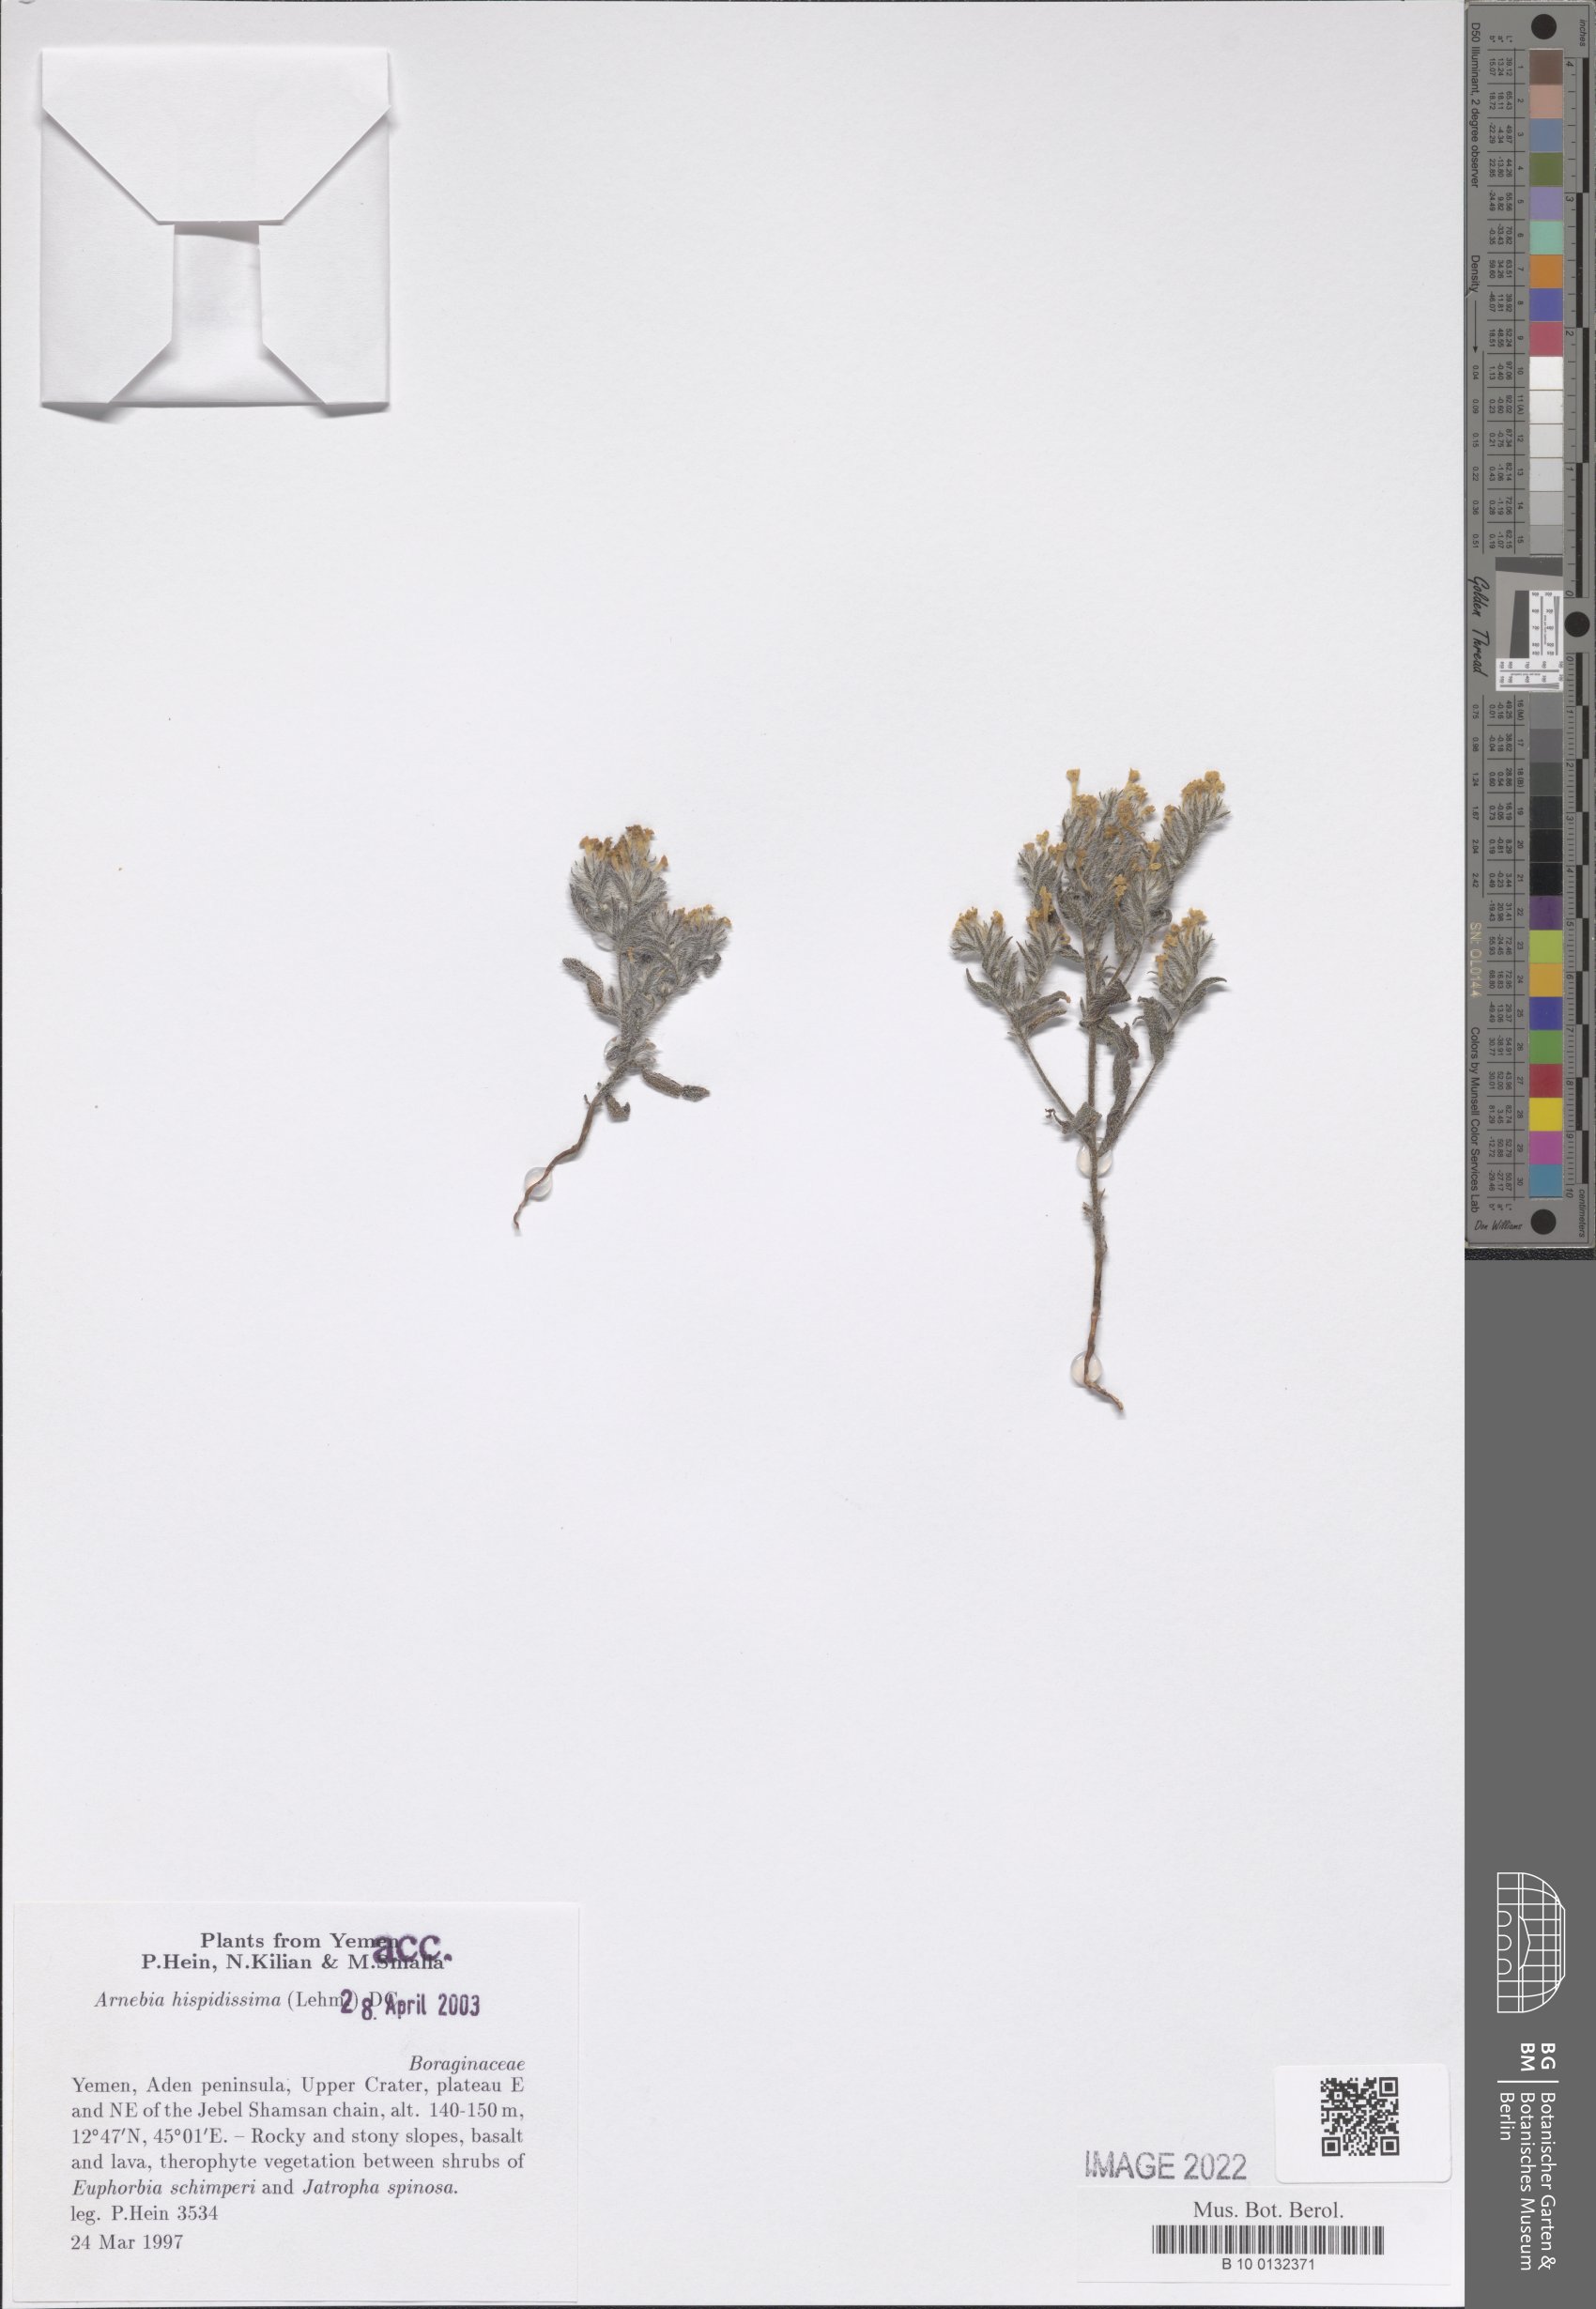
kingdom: Plantae
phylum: Tracheophyta
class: Magnoliopsida
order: Boraginales
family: Boraginaceae
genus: Arnebia
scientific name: Arnebia hispidissima
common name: Arabian-primrose
